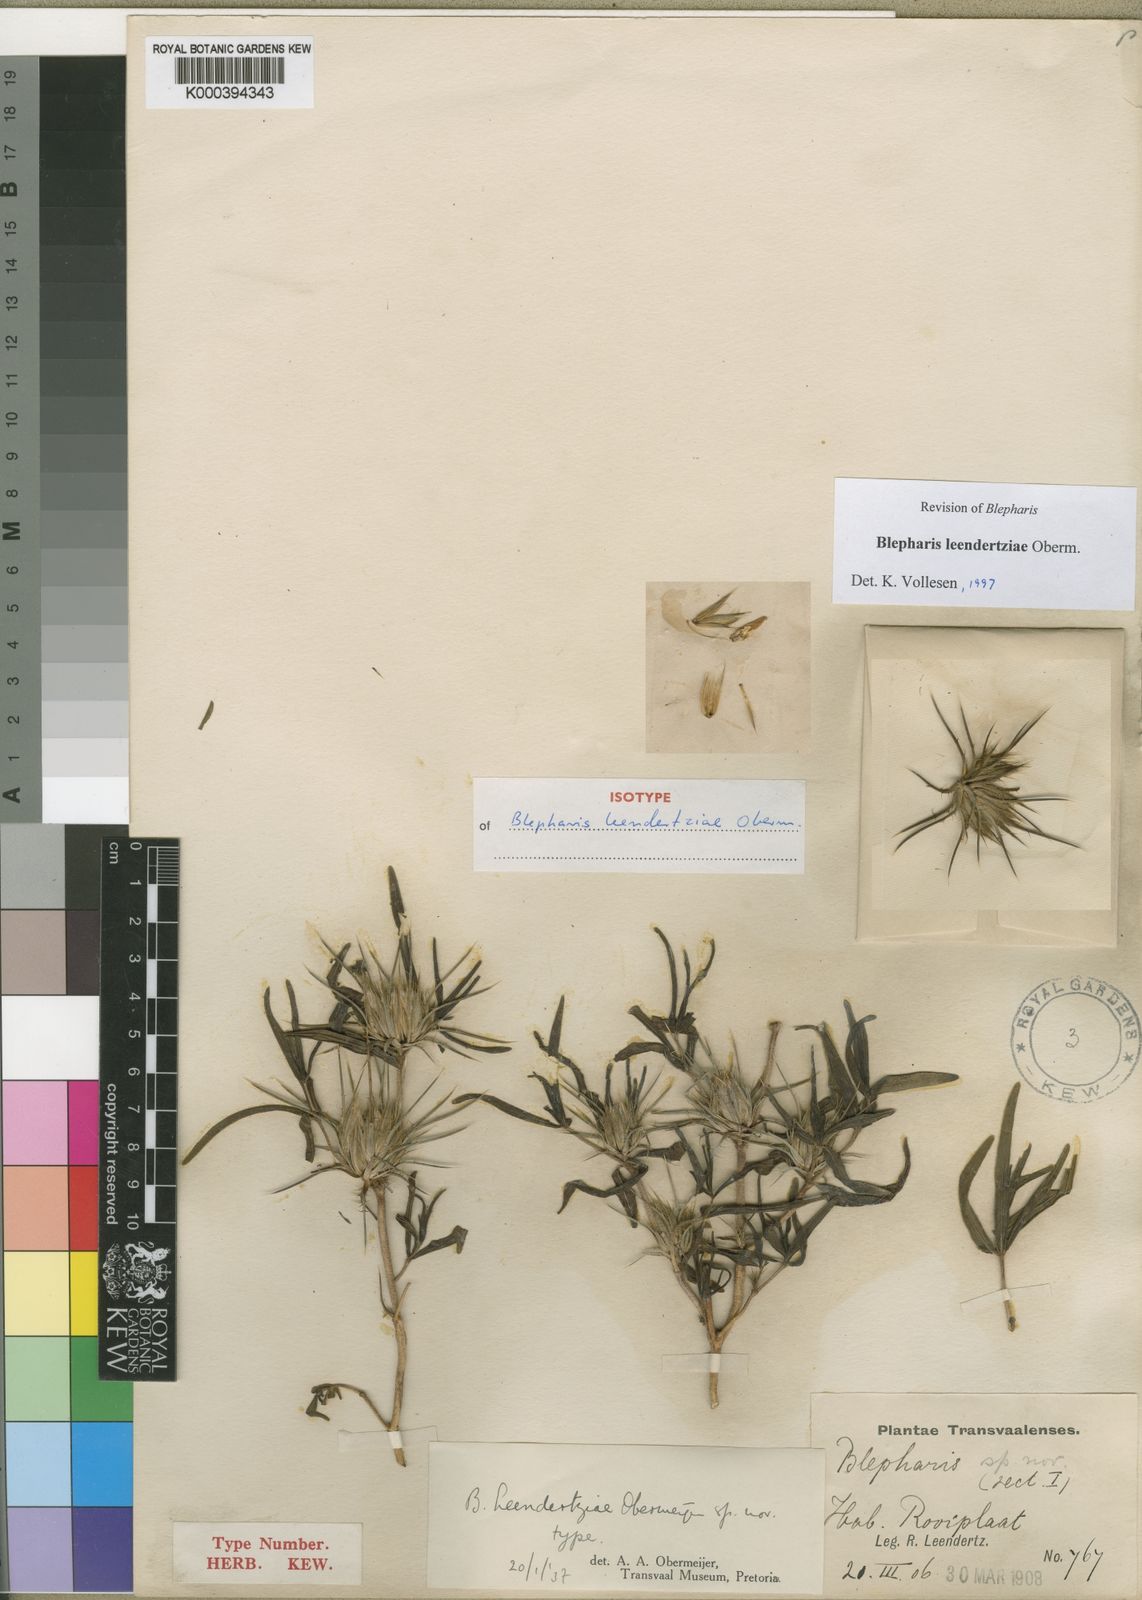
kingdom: Plantae
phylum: Tracheophyta
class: Magnoliopsida
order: Lamiales
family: Acanthaceae
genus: Blepharis
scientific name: Blepharis leendertziae
